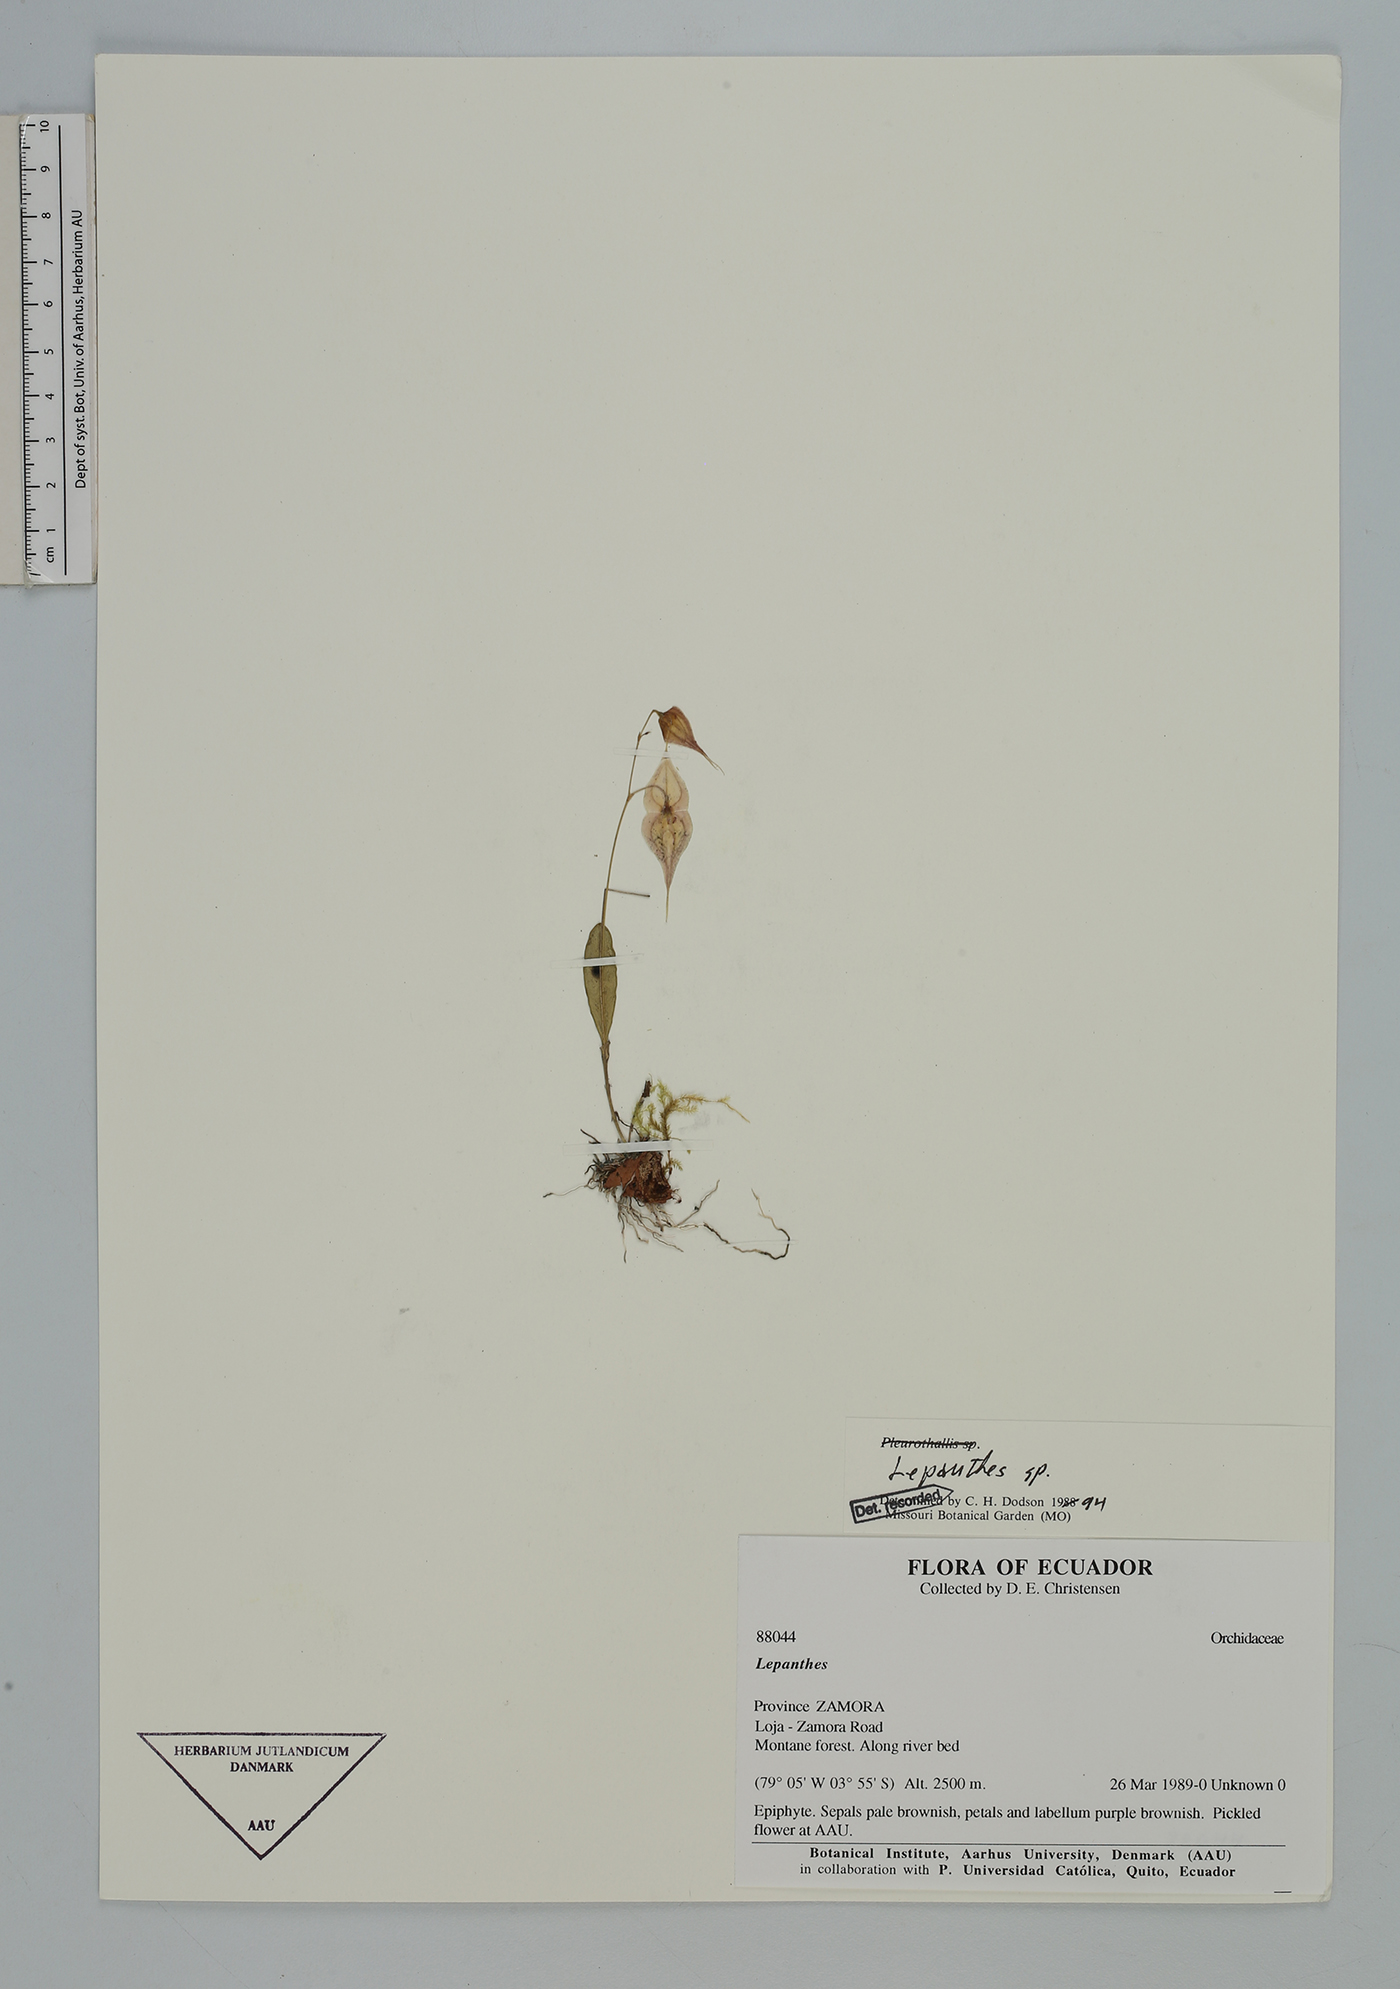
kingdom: Plantae
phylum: Tracheophyta
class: Liliopsida
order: Asparagales
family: Orchidaceae
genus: Lepanthes
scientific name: Lepanthes
